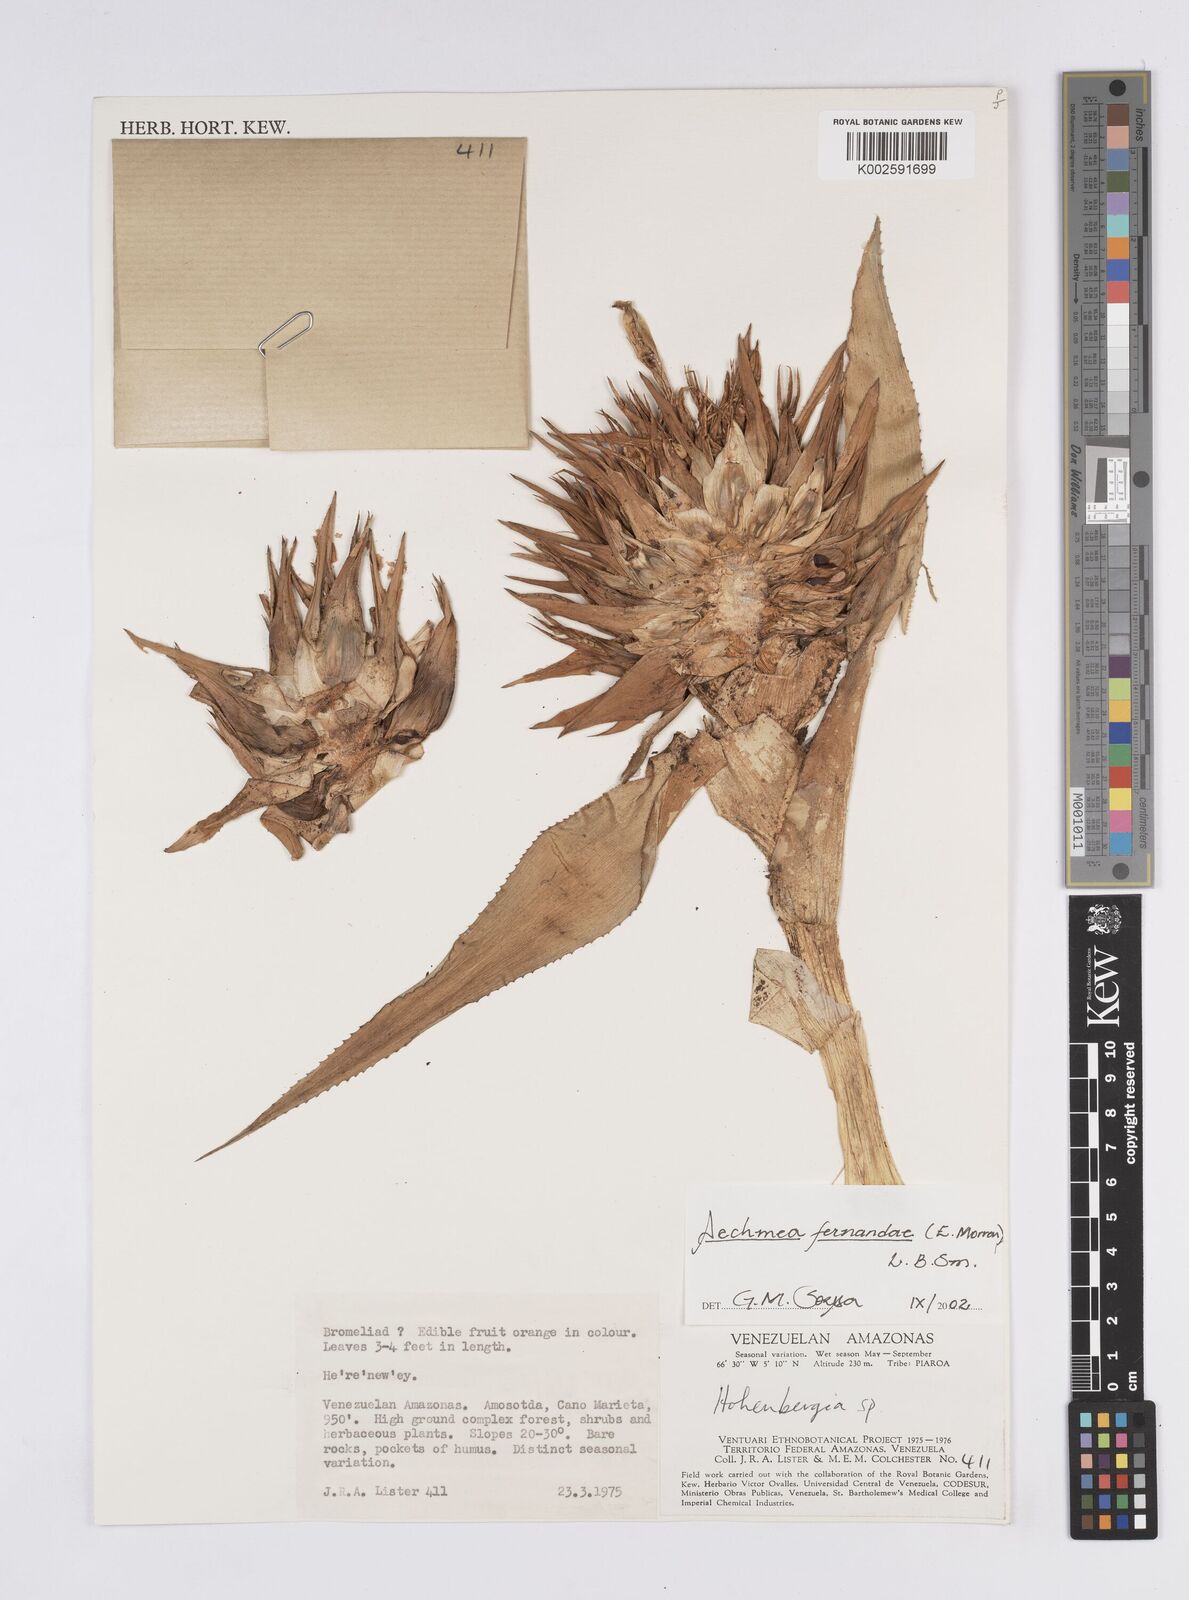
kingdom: Plantae
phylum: Tracheophyta
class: Liliopsida
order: Poales
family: Bromeliaceae
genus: Aechmea
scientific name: Aechmea fernandae
